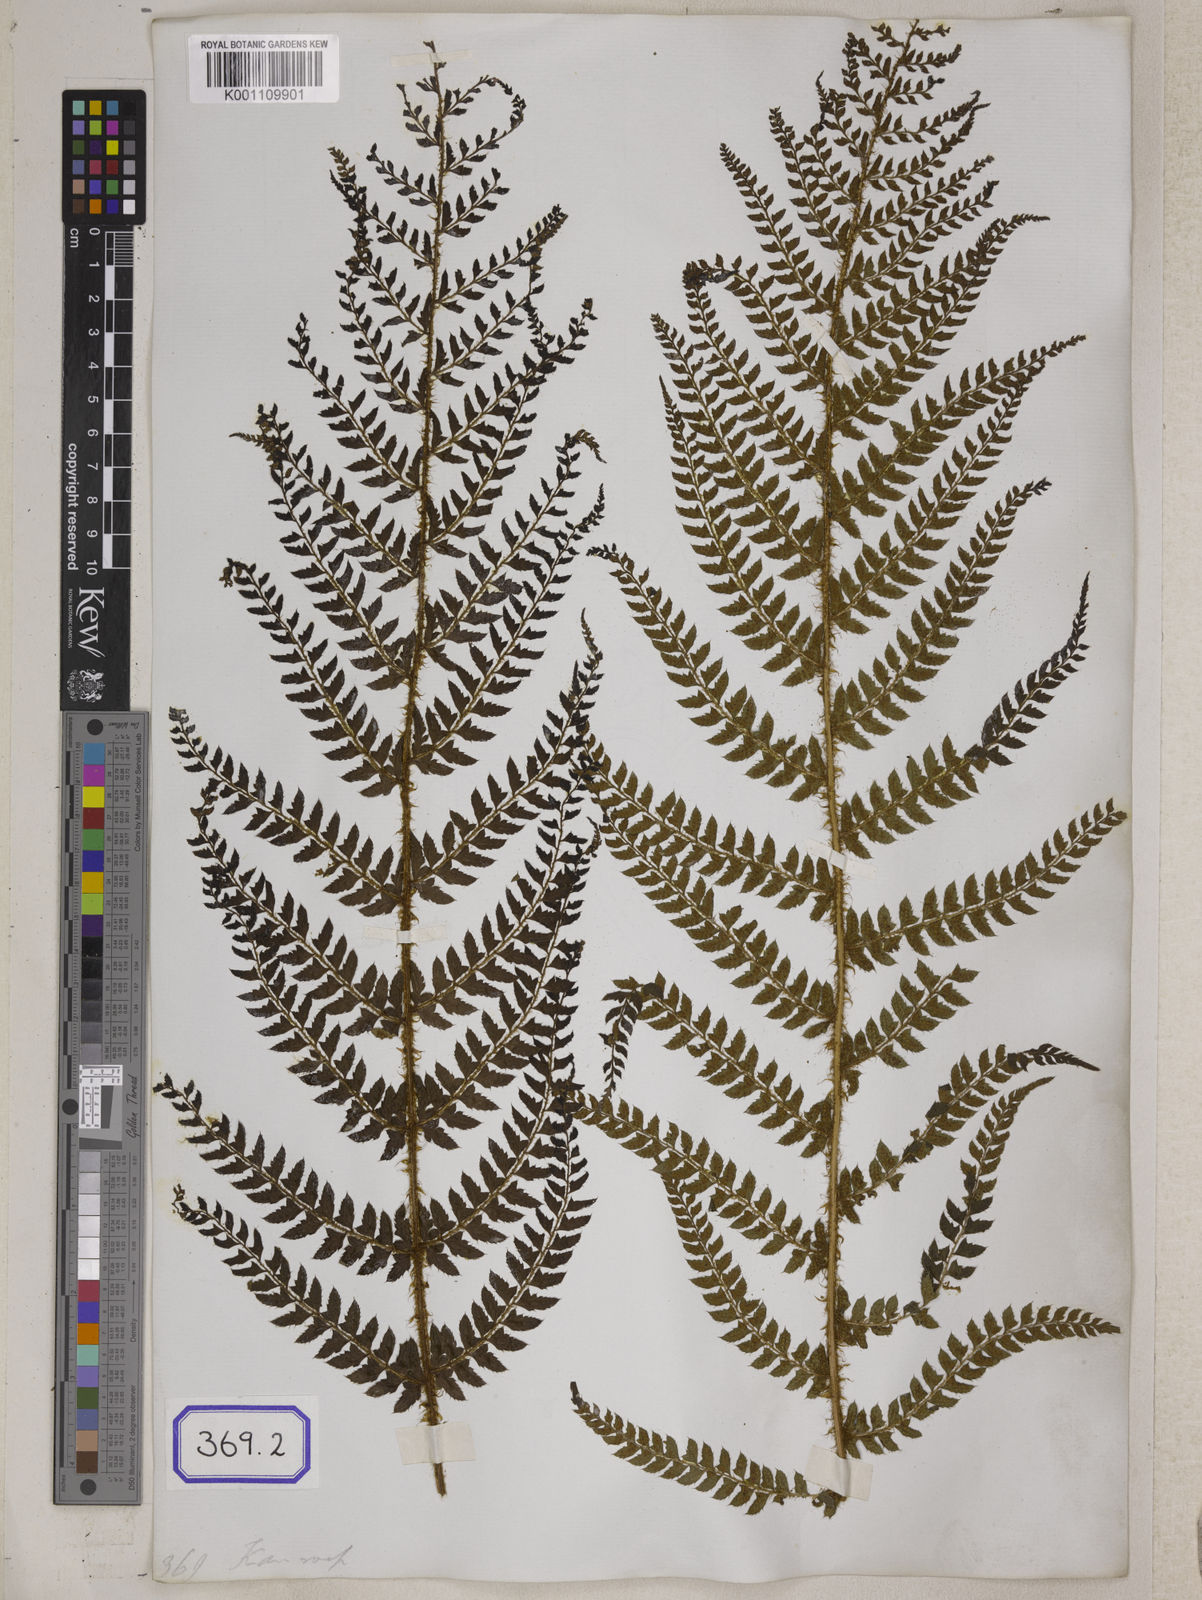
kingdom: Plantae
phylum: Tracheophyta
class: Polypodiopsida
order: Polypodiales
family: Dryopteridaceae
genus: Polystichum
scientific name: Polystichum squarrosum
